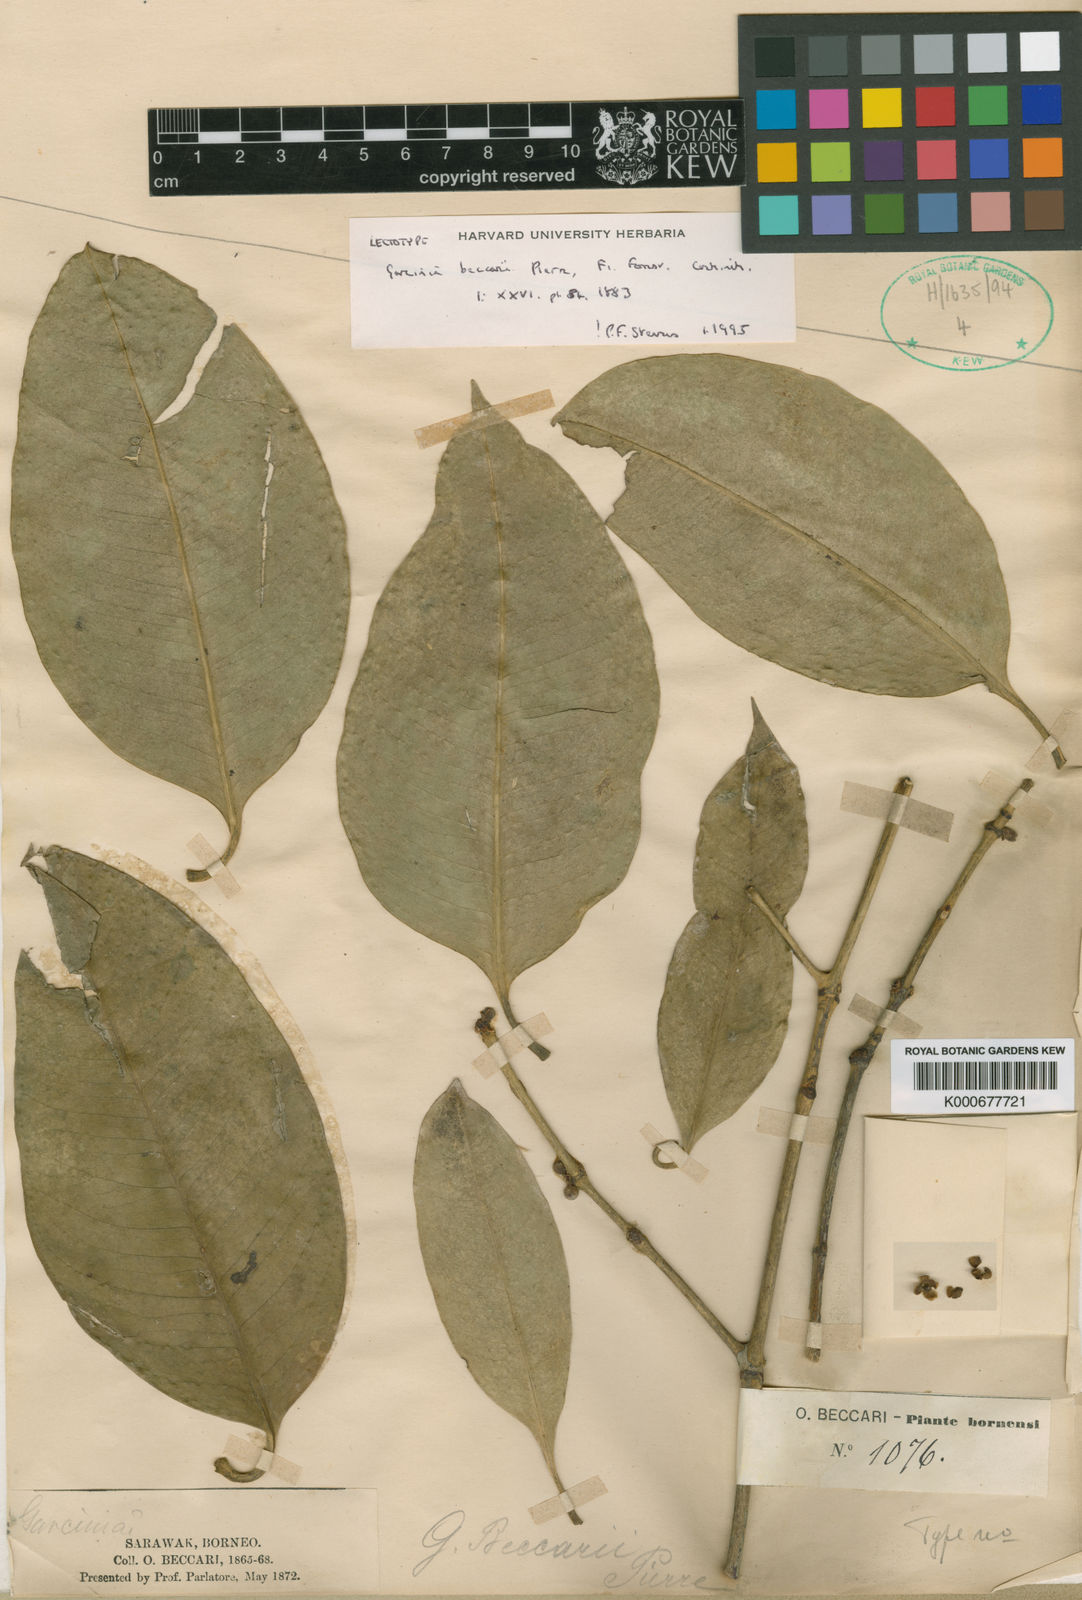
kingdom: Plantae
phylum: Tracheophyta
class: Magnoliopsida
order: Malpighiales
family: Clusiaceae
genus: Garcinia
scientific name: Garcinia beccarii
